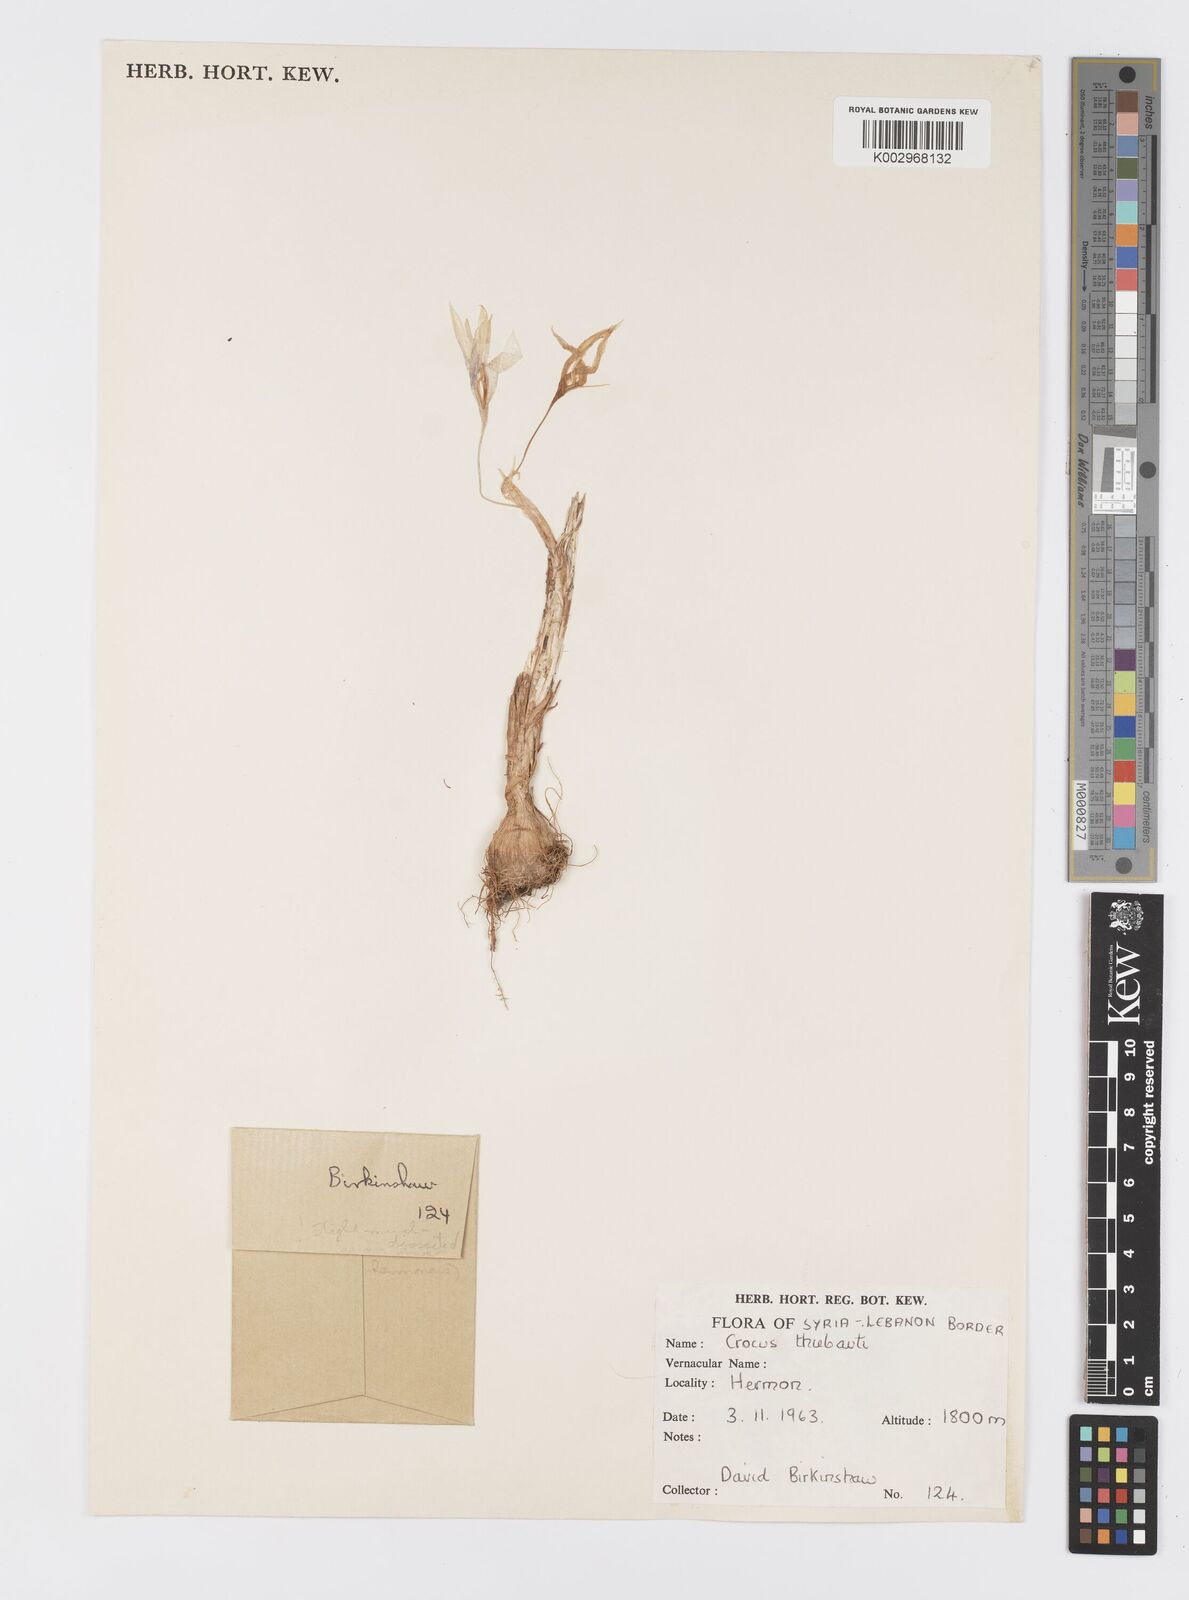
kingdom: Plantae
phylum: Tracheophyta
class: Liliopsida
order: Asparagales
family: Iridaceae
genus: Crocus
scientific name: Crocus
